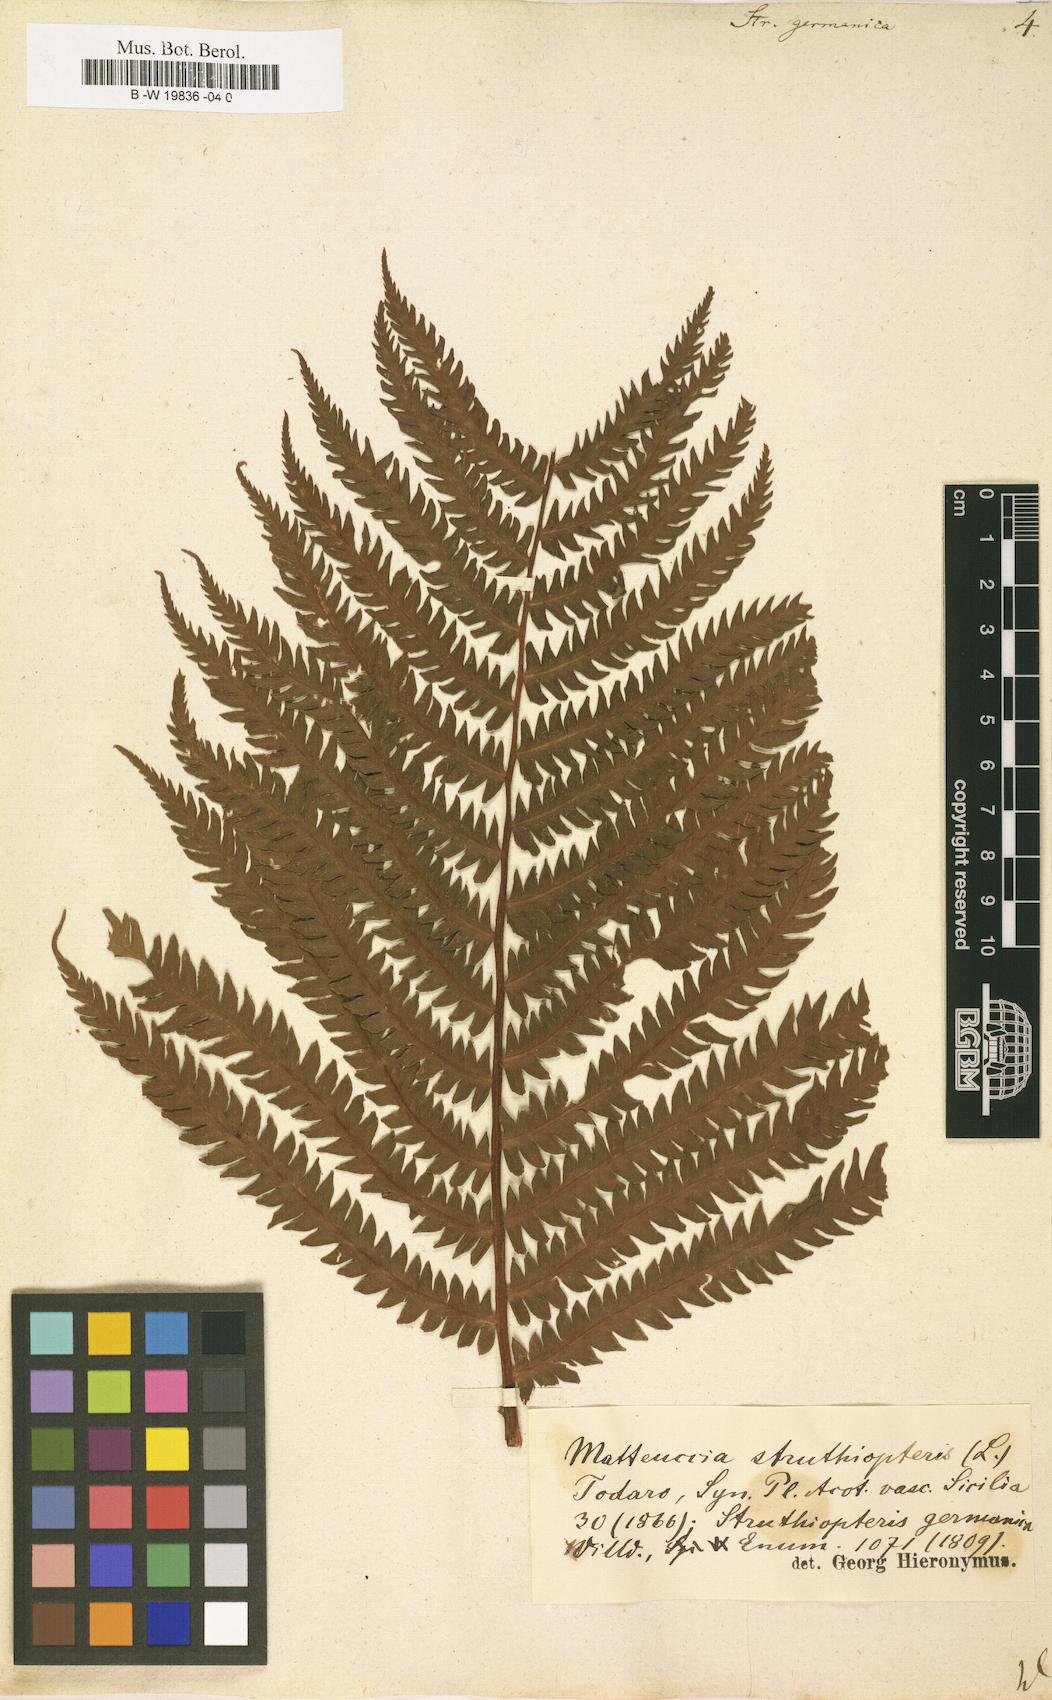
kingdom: Plantae
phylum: Tracheophyta
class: Polypodiopsida
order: Polypodiales
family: Onocleaceae
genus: Matteuccia
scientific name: Matteuccia struthiopteris
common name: Ostrich fern
